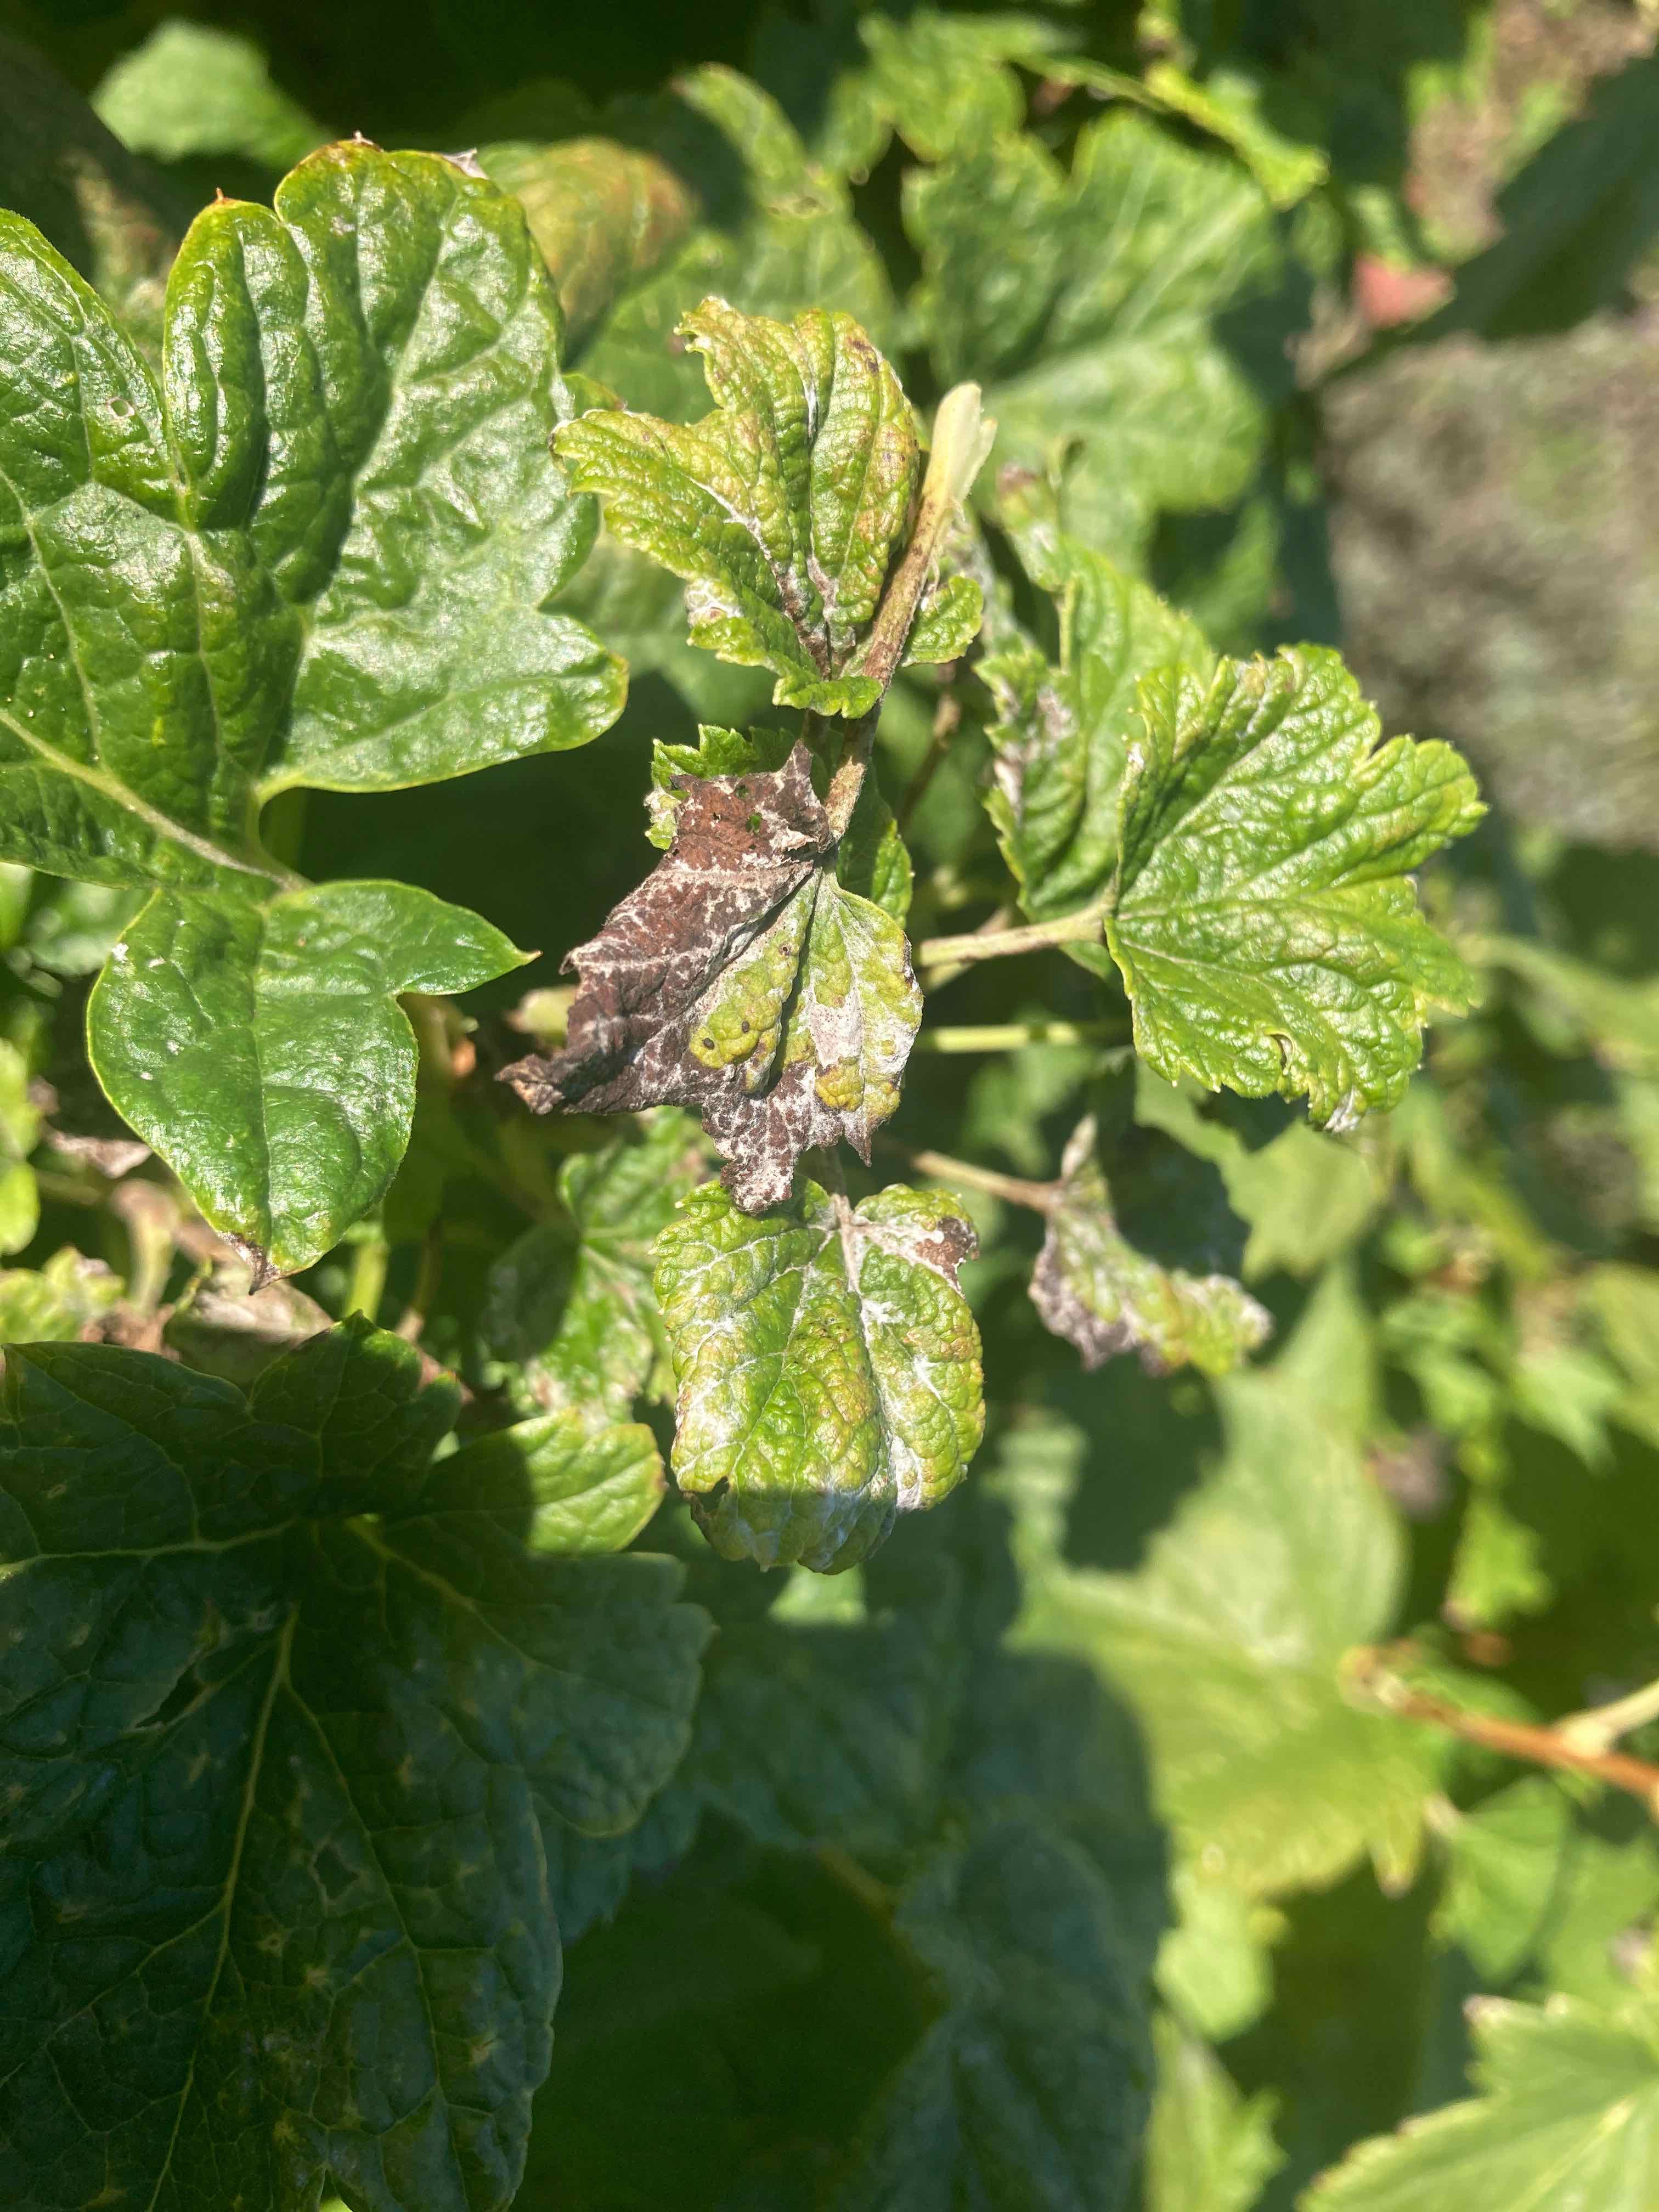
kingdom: Fungi
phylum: Ascomycota
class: Leotiomycetes
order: Helotiales
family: Erysiphaceae
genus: Podosphaera
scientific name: Podosphaera mors-uvae
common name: American gooseberry mildew
